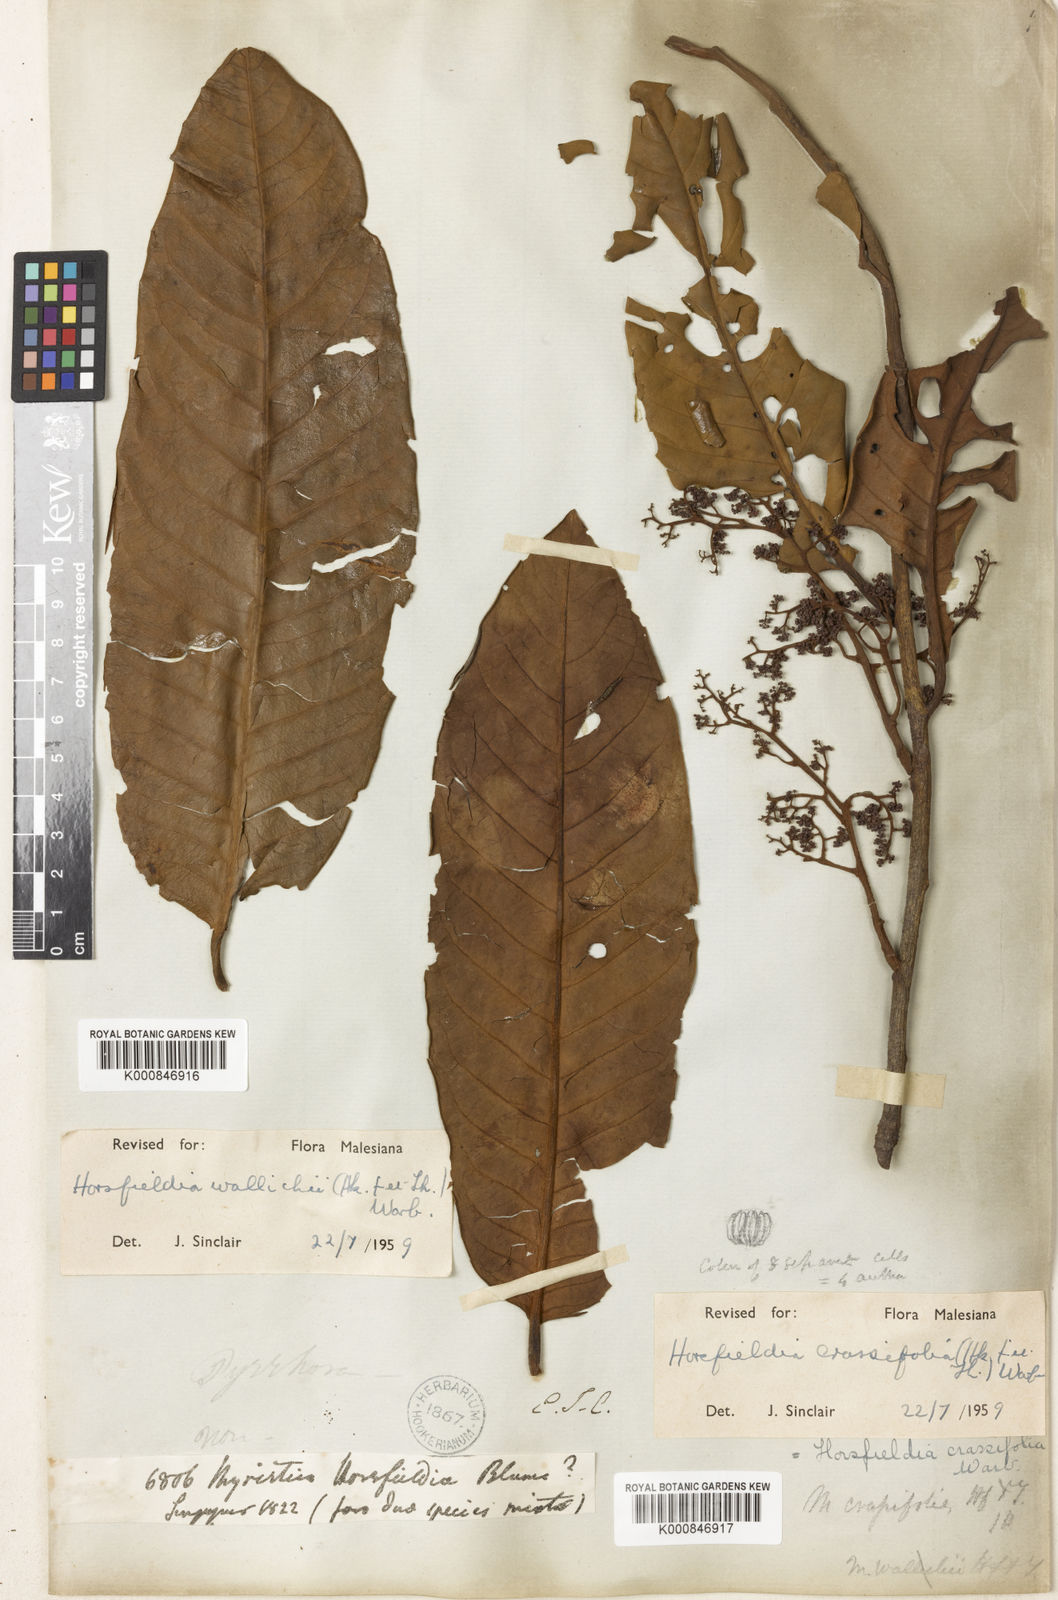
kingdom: Plantae
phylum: Tracheophyta
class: Magnoliopsida
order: Magnoliales
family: Myristicaceae
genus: Horsfieldia
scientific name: Horsfieldia crassifolia
